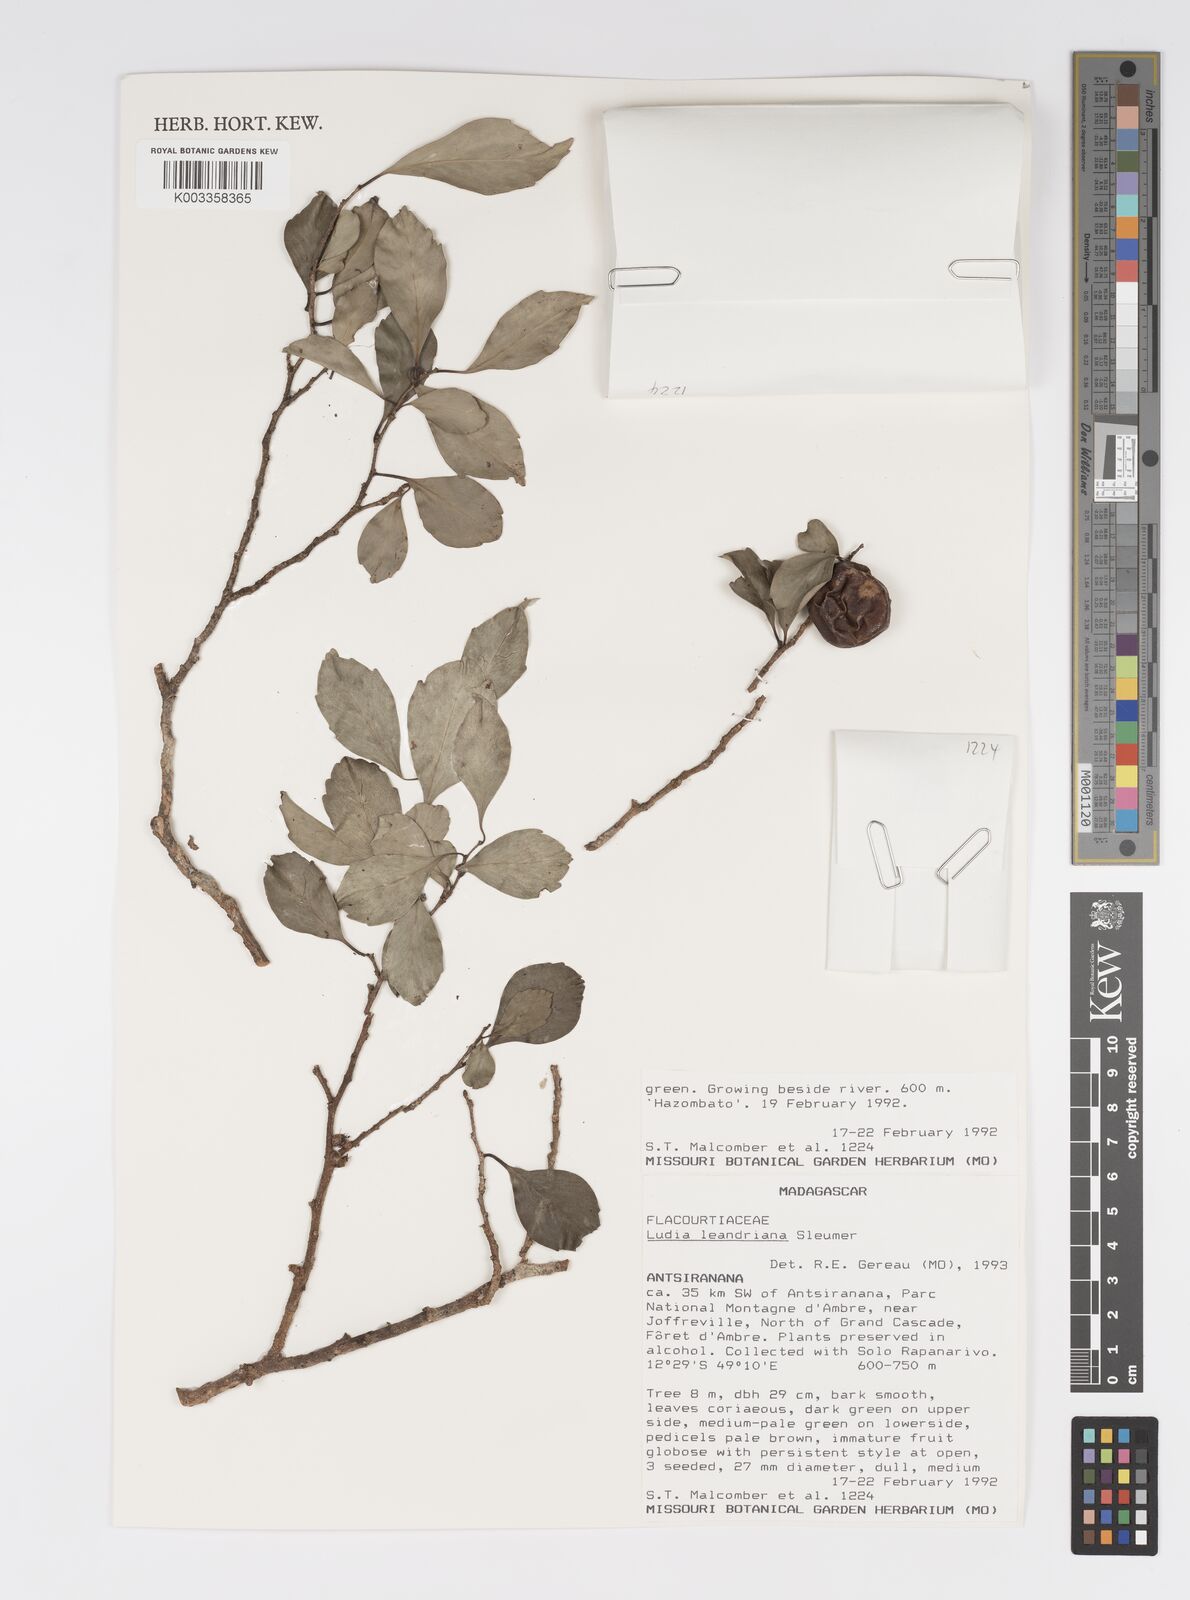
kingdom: Plantae
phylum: Tracheophyta
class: Magnoliopsida
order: Malpighiales
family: Salicaceae
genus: Ludia
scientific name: Ludia leandriana
